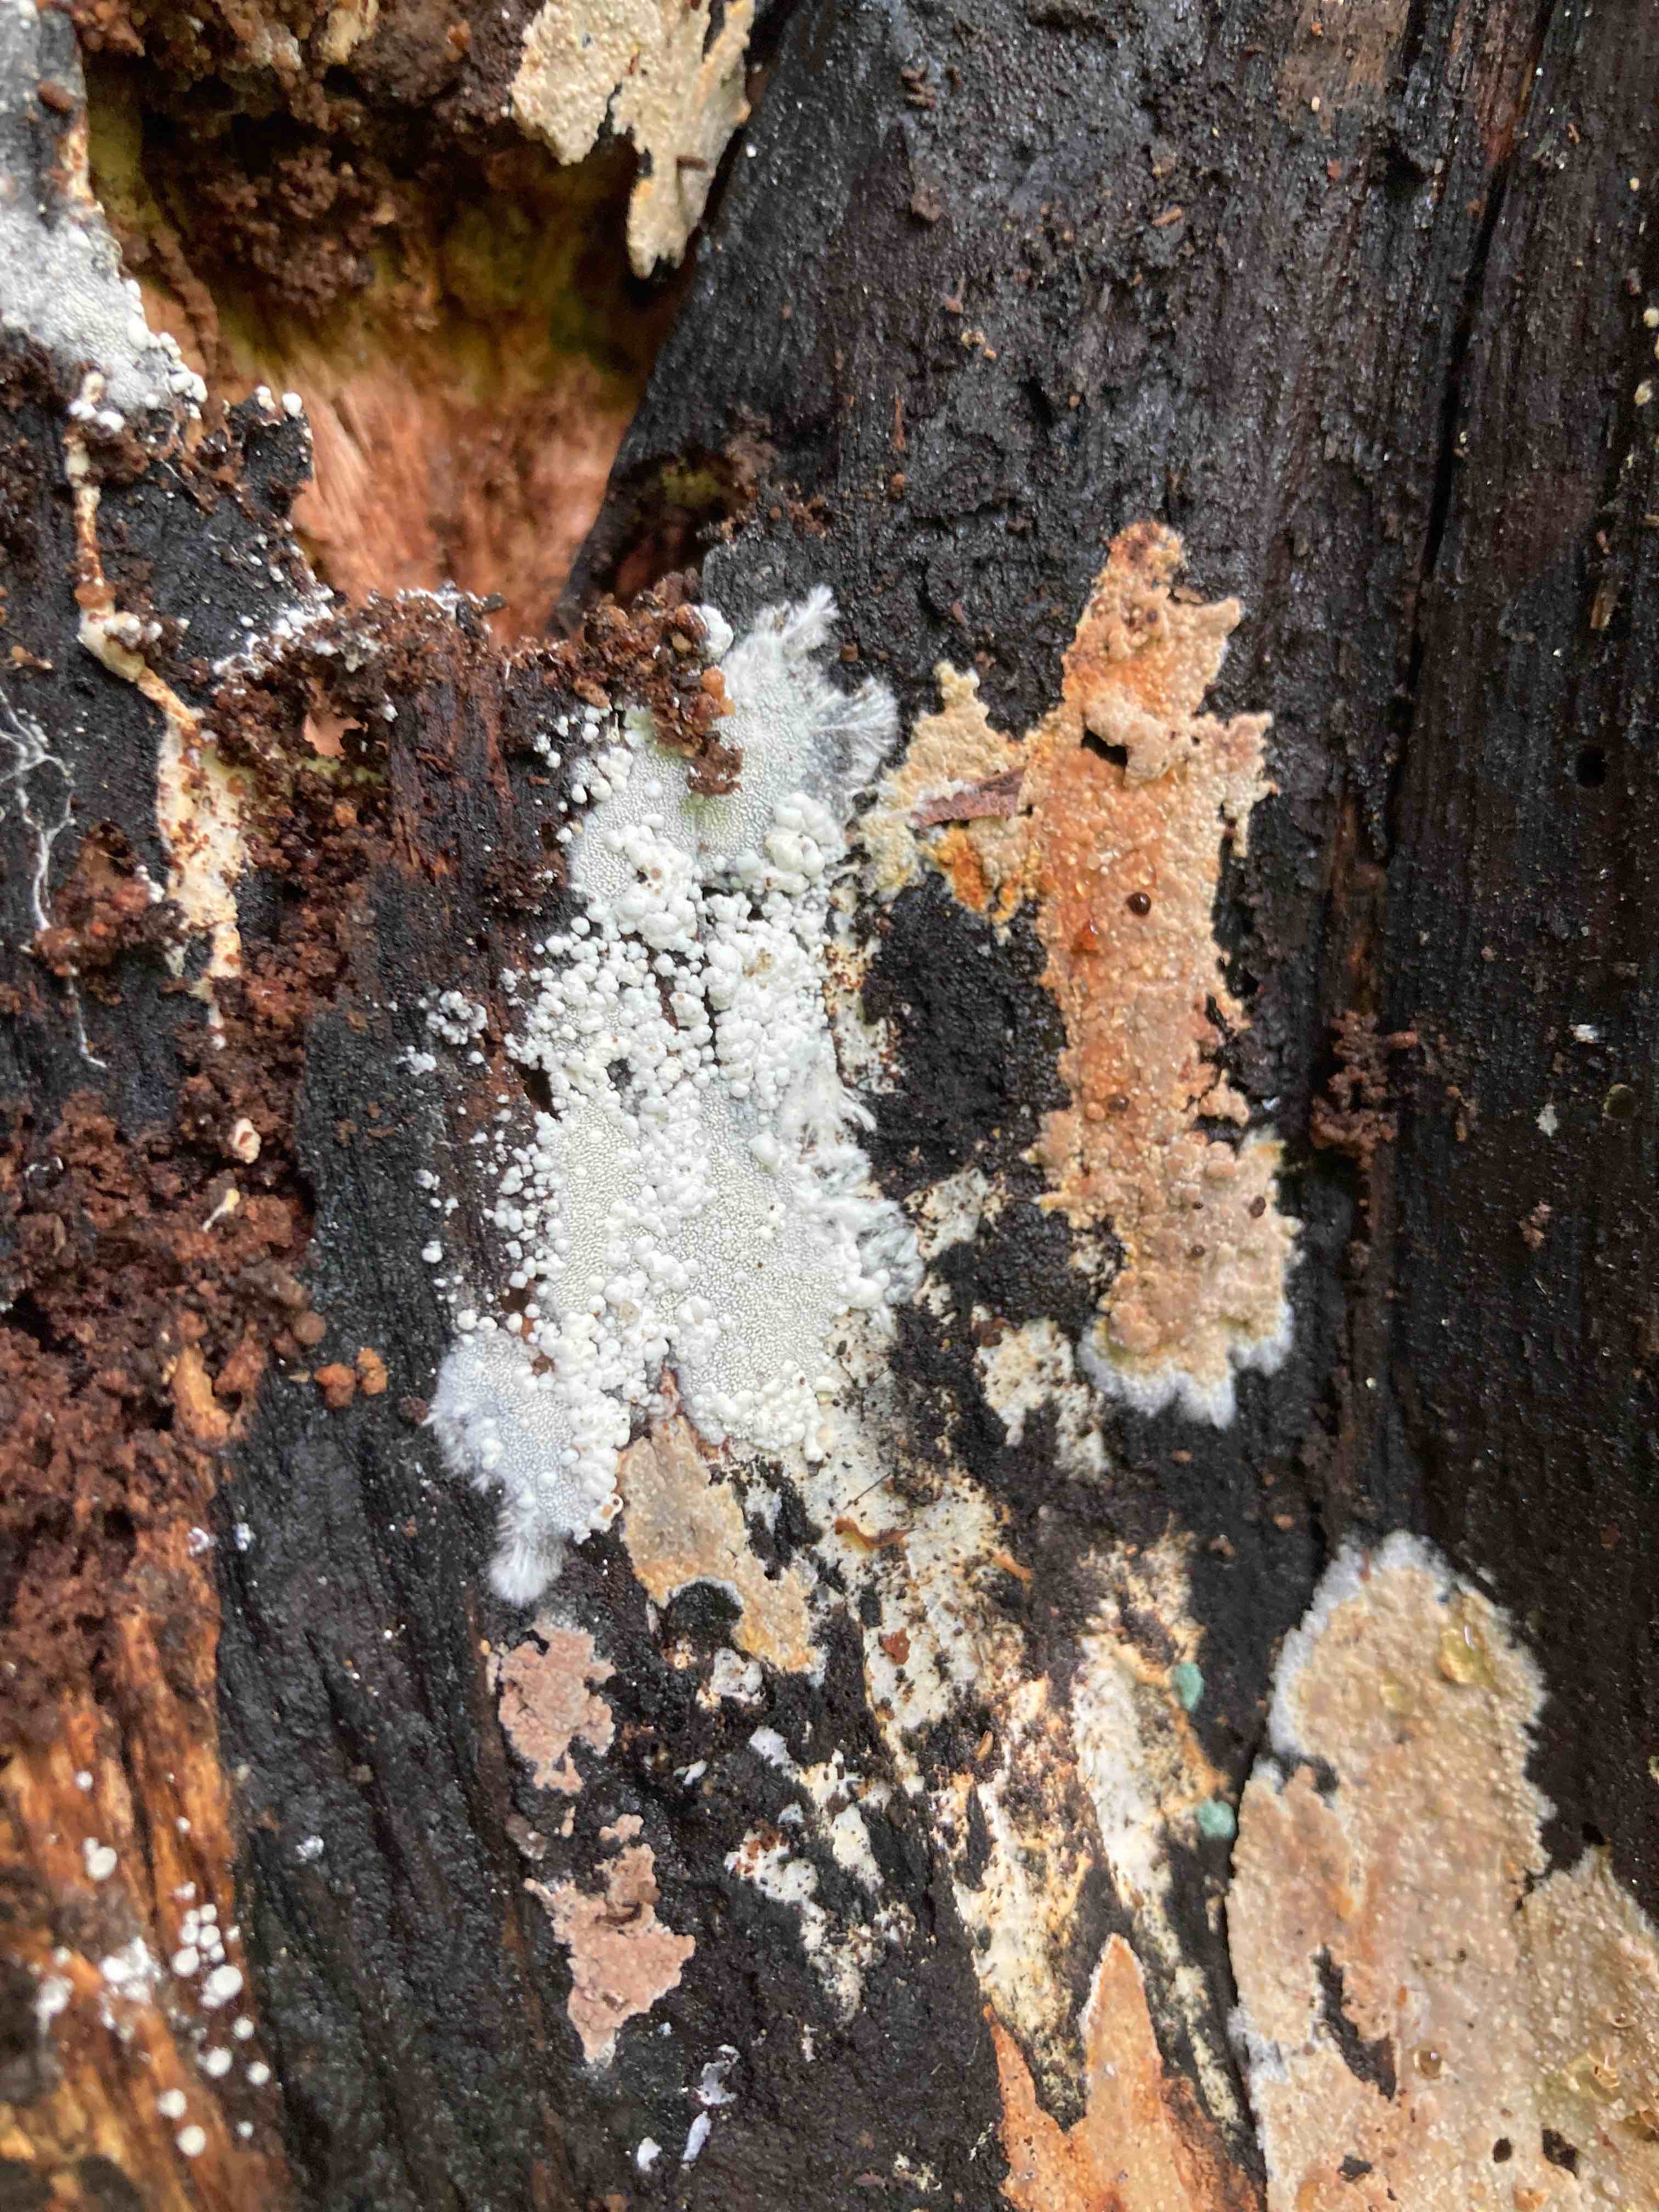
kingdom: Fungi
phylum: Basidiomycota
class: Agaricomycetes
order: Trechisporales
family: Sistotremataceae
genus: Trechispora
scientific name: Trechispora stevensonii
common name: støvende vathinde
